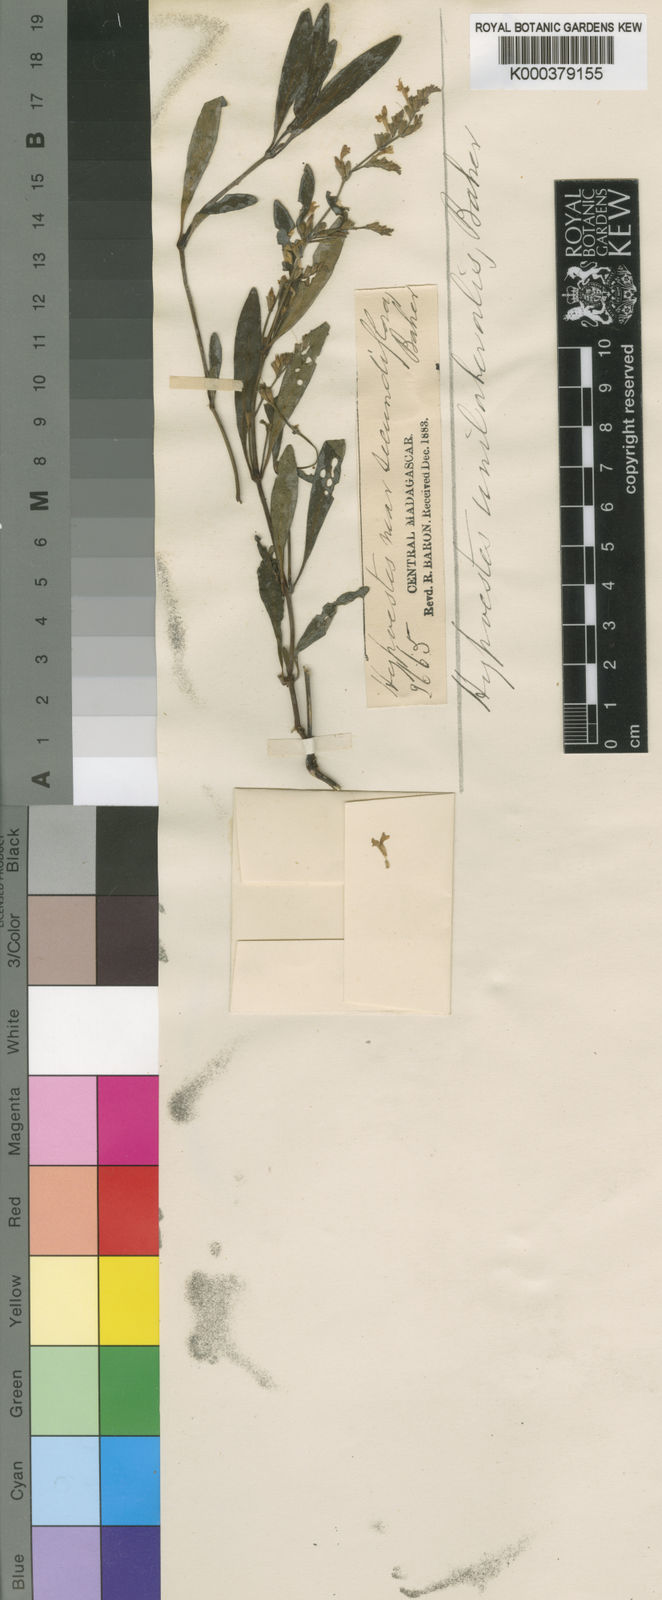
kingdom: Plantae
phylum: Tracheophyta
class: Magnoliopsida
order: Lamiales
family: Acanthaceae
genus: Hypoestes
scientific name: Hypoestes unilateralis
